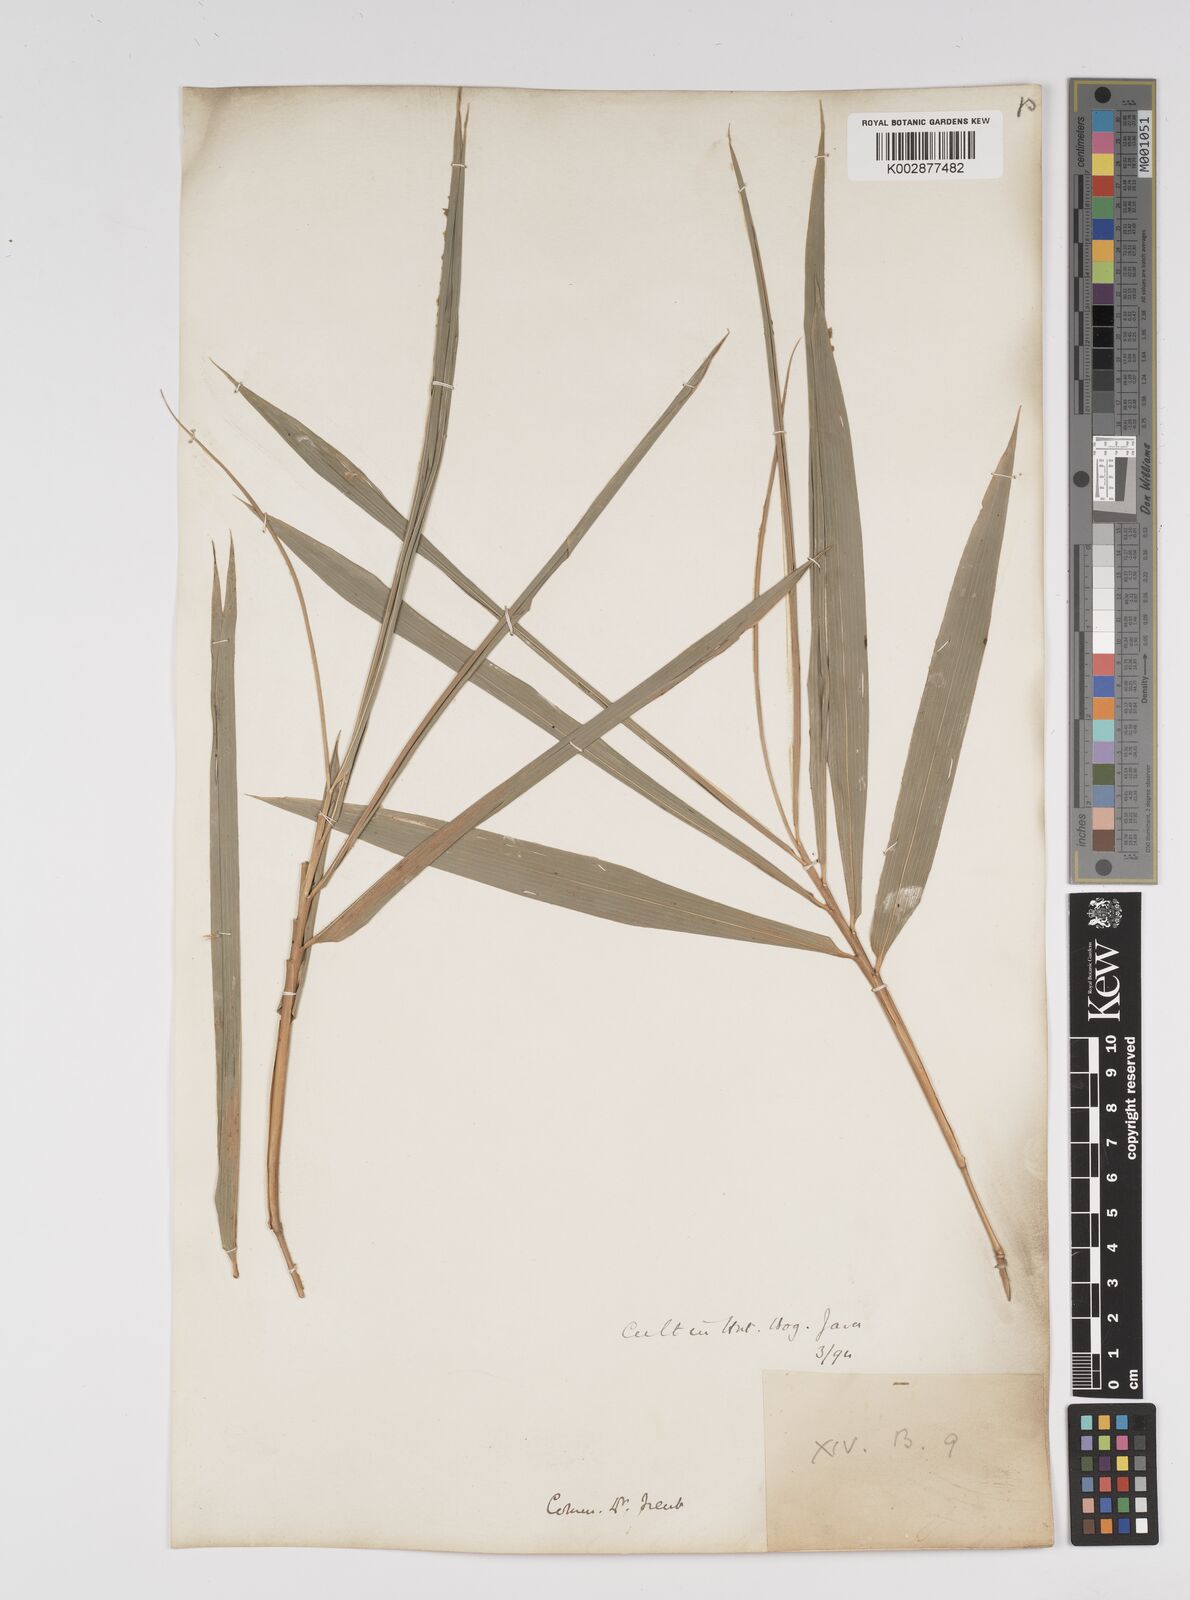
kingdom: Plantae
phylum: Tracheophyta
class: Liliopsida
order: Poales
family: Poaceae
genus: Bambusa
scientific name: Bambusa
